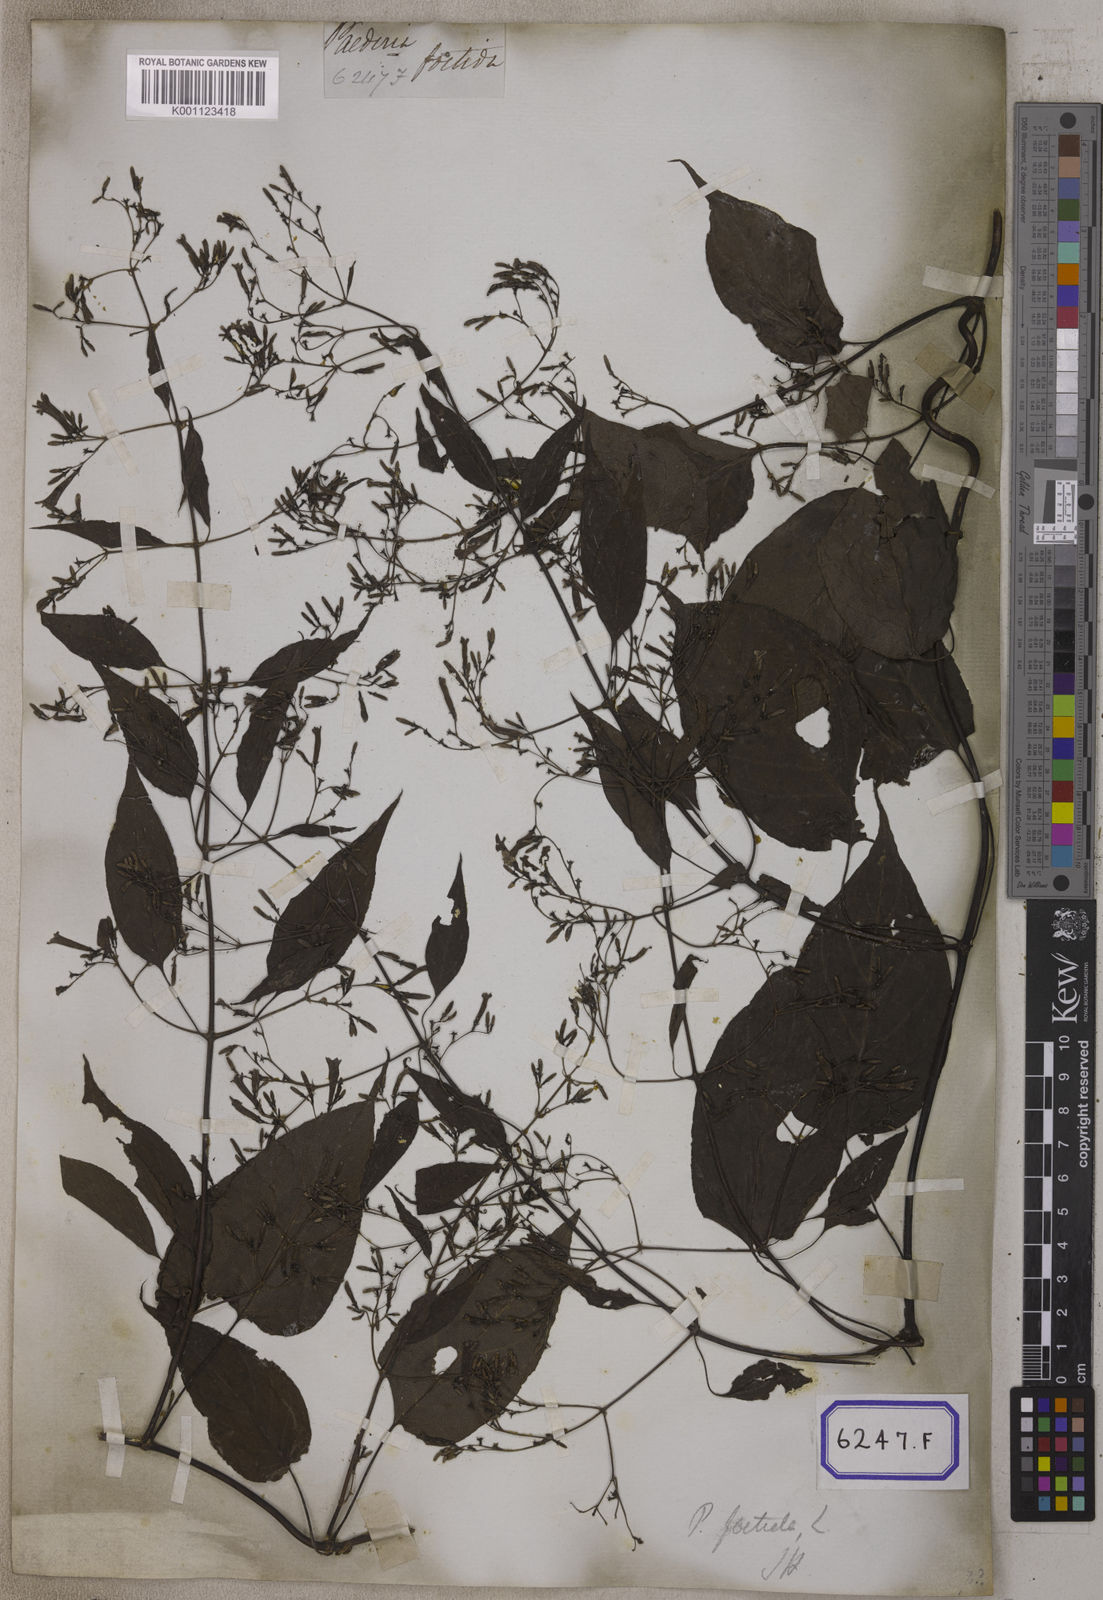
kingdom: Plantae
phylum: Tracheophyta
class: Magnoliopsida
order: Piperales
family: Piperaceae
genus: Piper
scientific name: Piper
